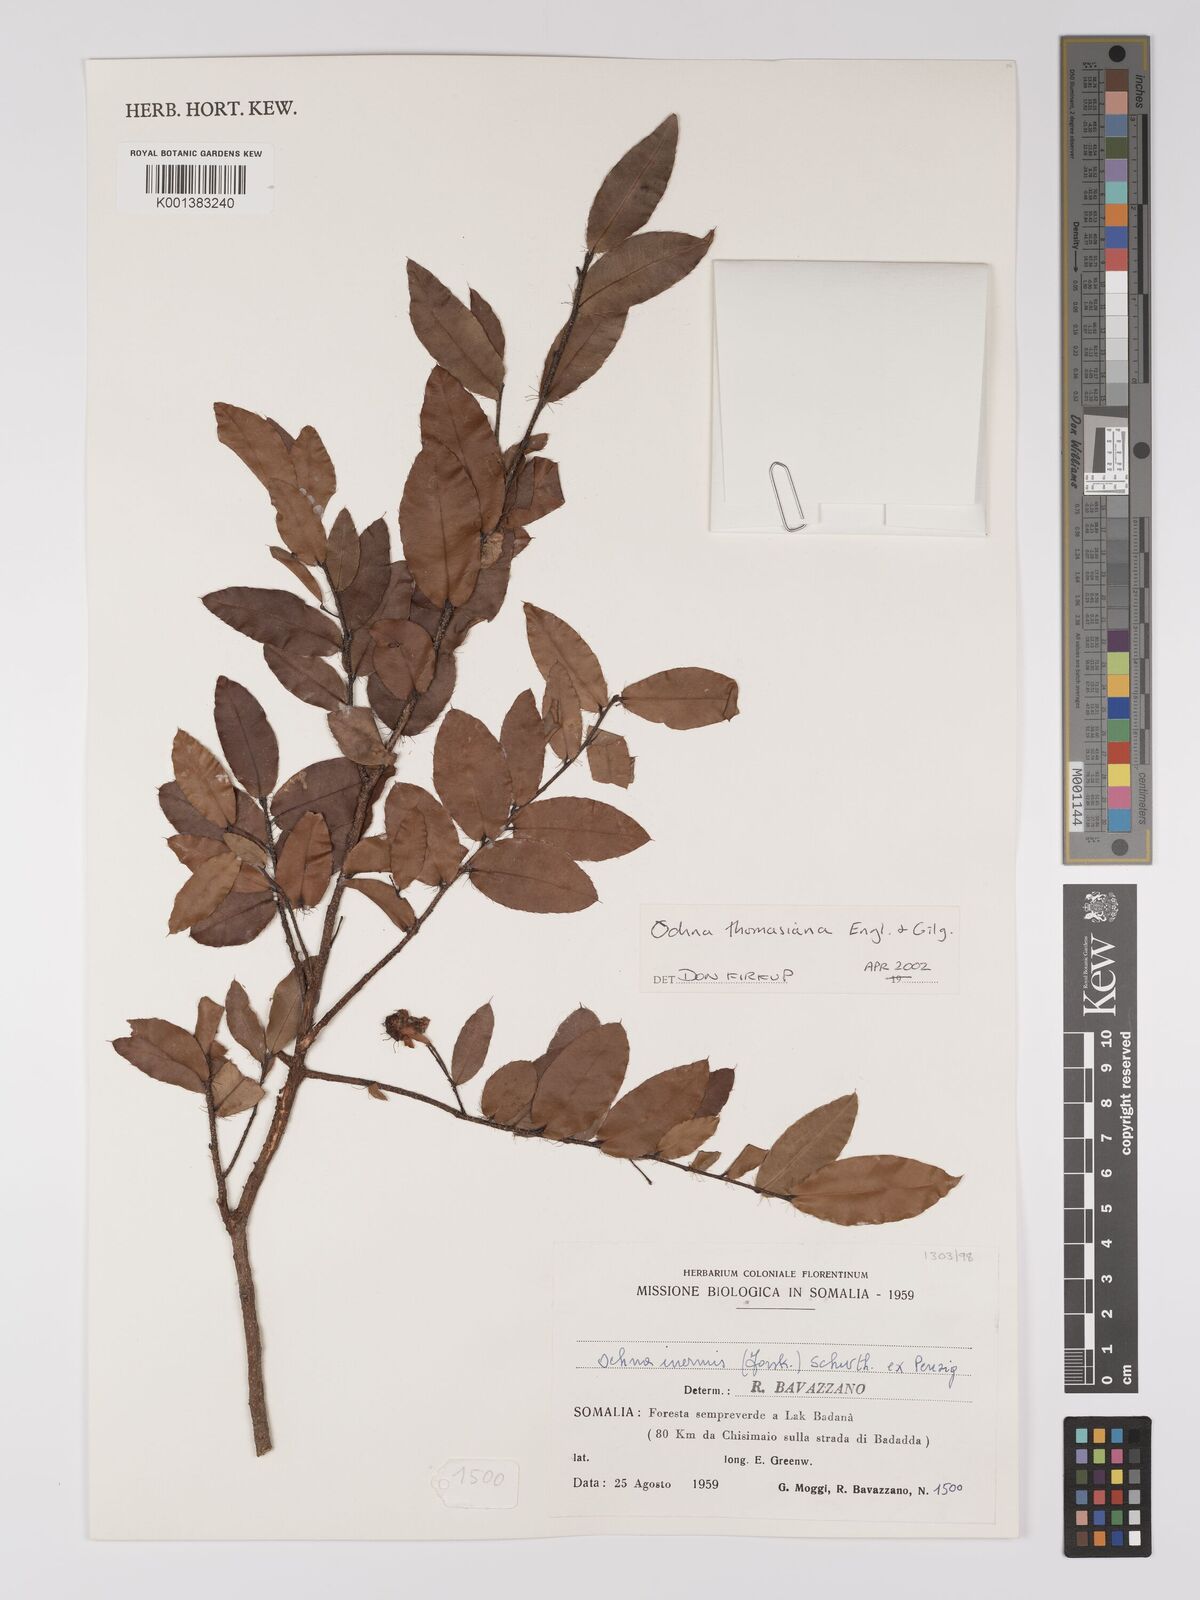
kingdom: Plantae
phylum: Tracheophyta
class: Magnoliopsida
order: Malpighiales
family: Ochnaceae
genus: Ochna
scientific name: Ochna thomasiana
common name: Thomas' bird's-eye bush
